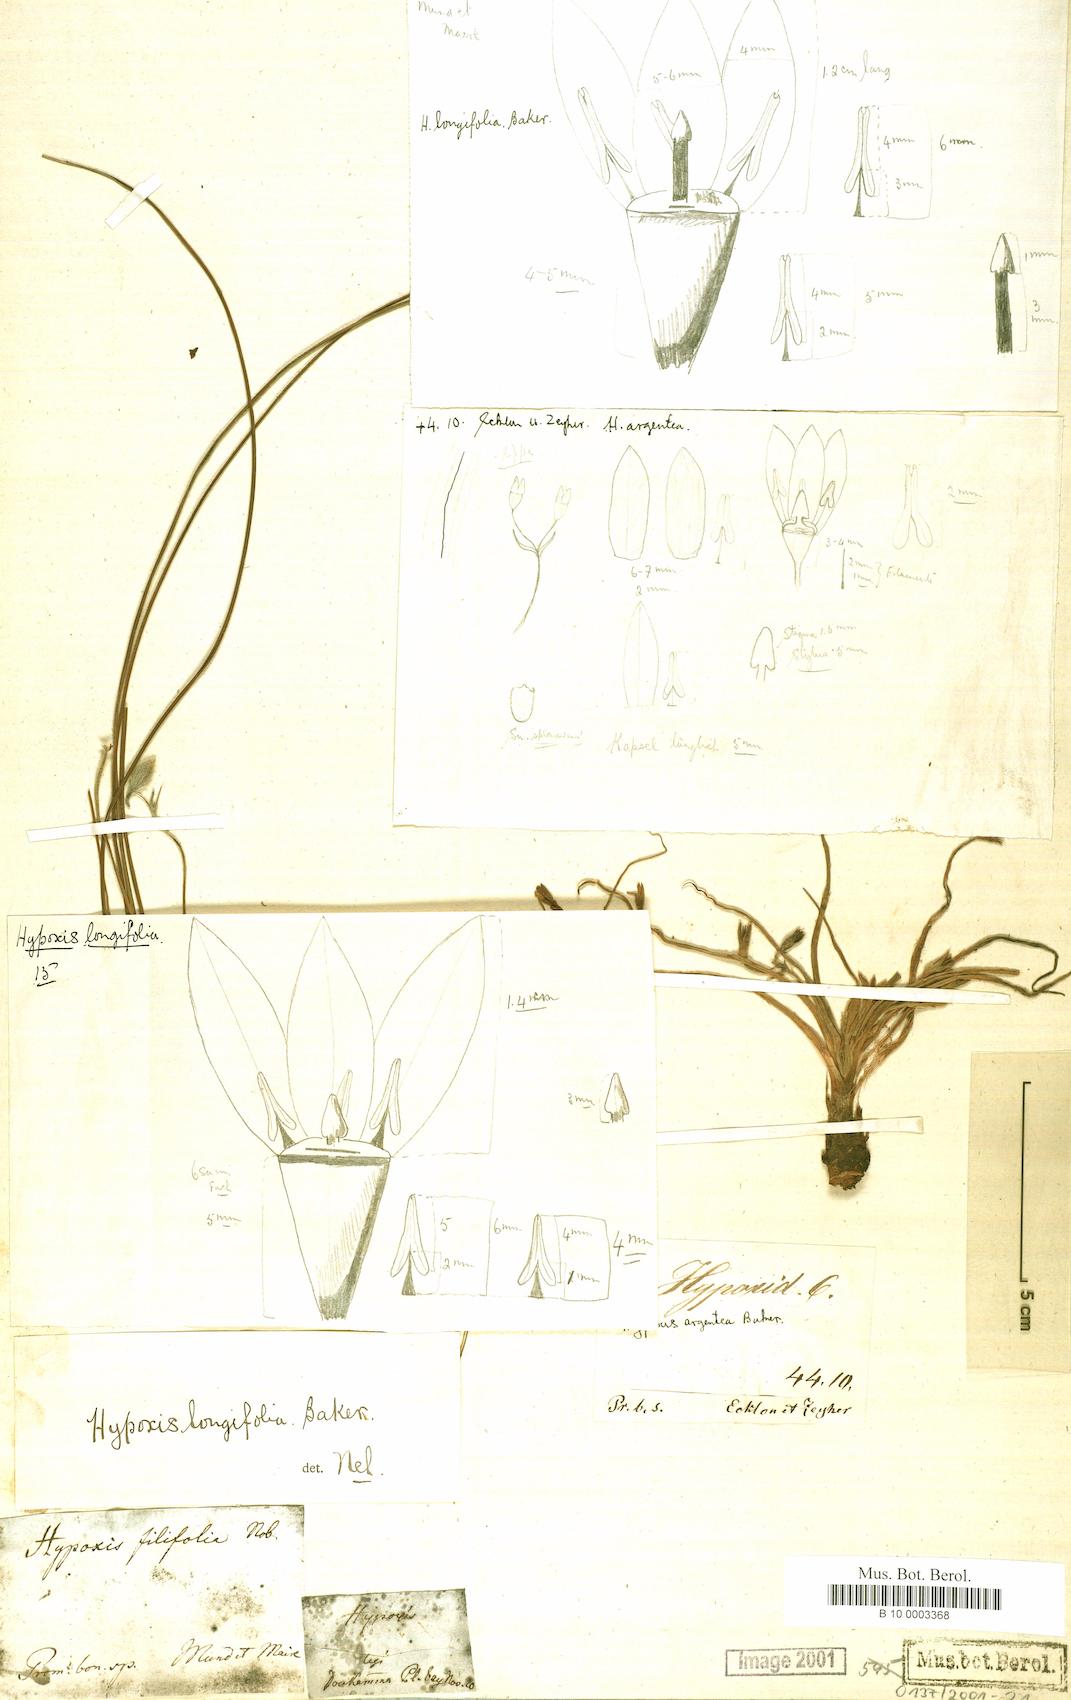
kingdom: Plantae
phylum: Tracheophyta
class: Liliopsida
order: Asparagales
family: Hypoxidaceae
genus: Hypoxis
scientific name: Hypoxis longifolia
